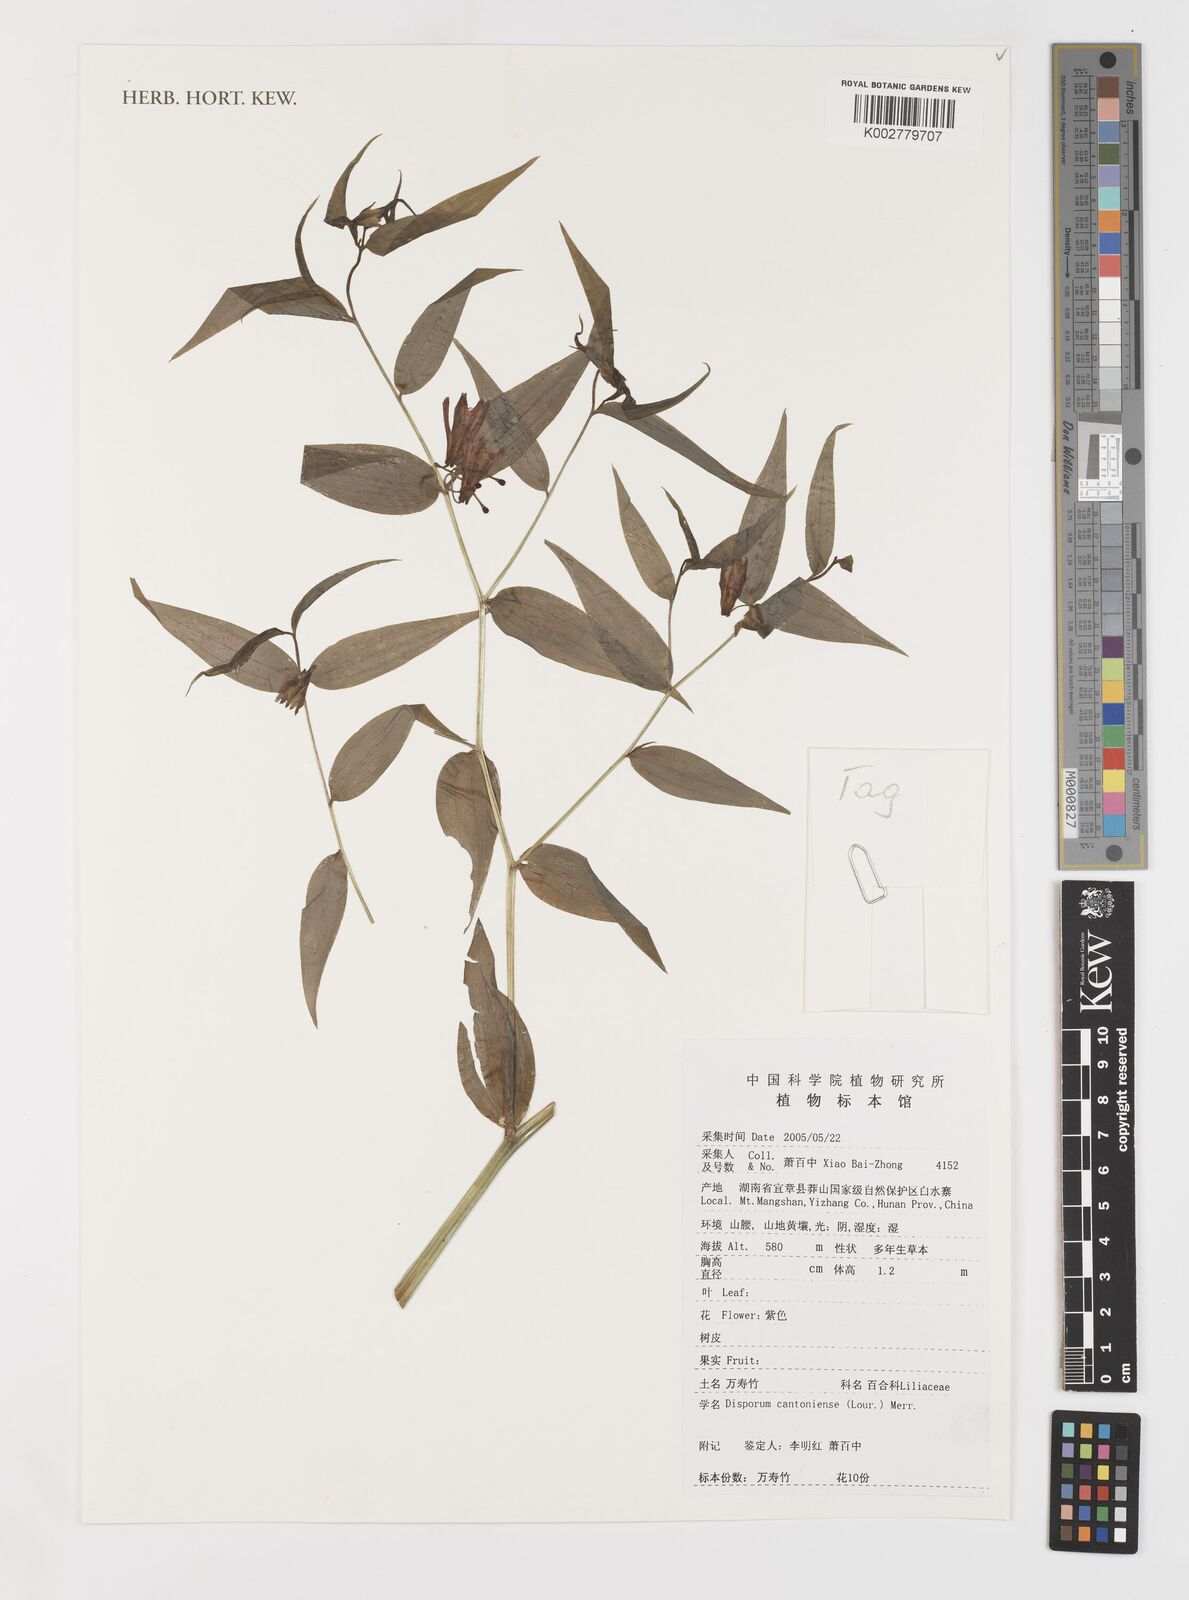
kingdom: Plantae
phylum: Tracheophyta
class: Liliopsida
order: Liliales
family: Colchicaceae
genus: Disporum
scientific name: Disporum cantoniense
